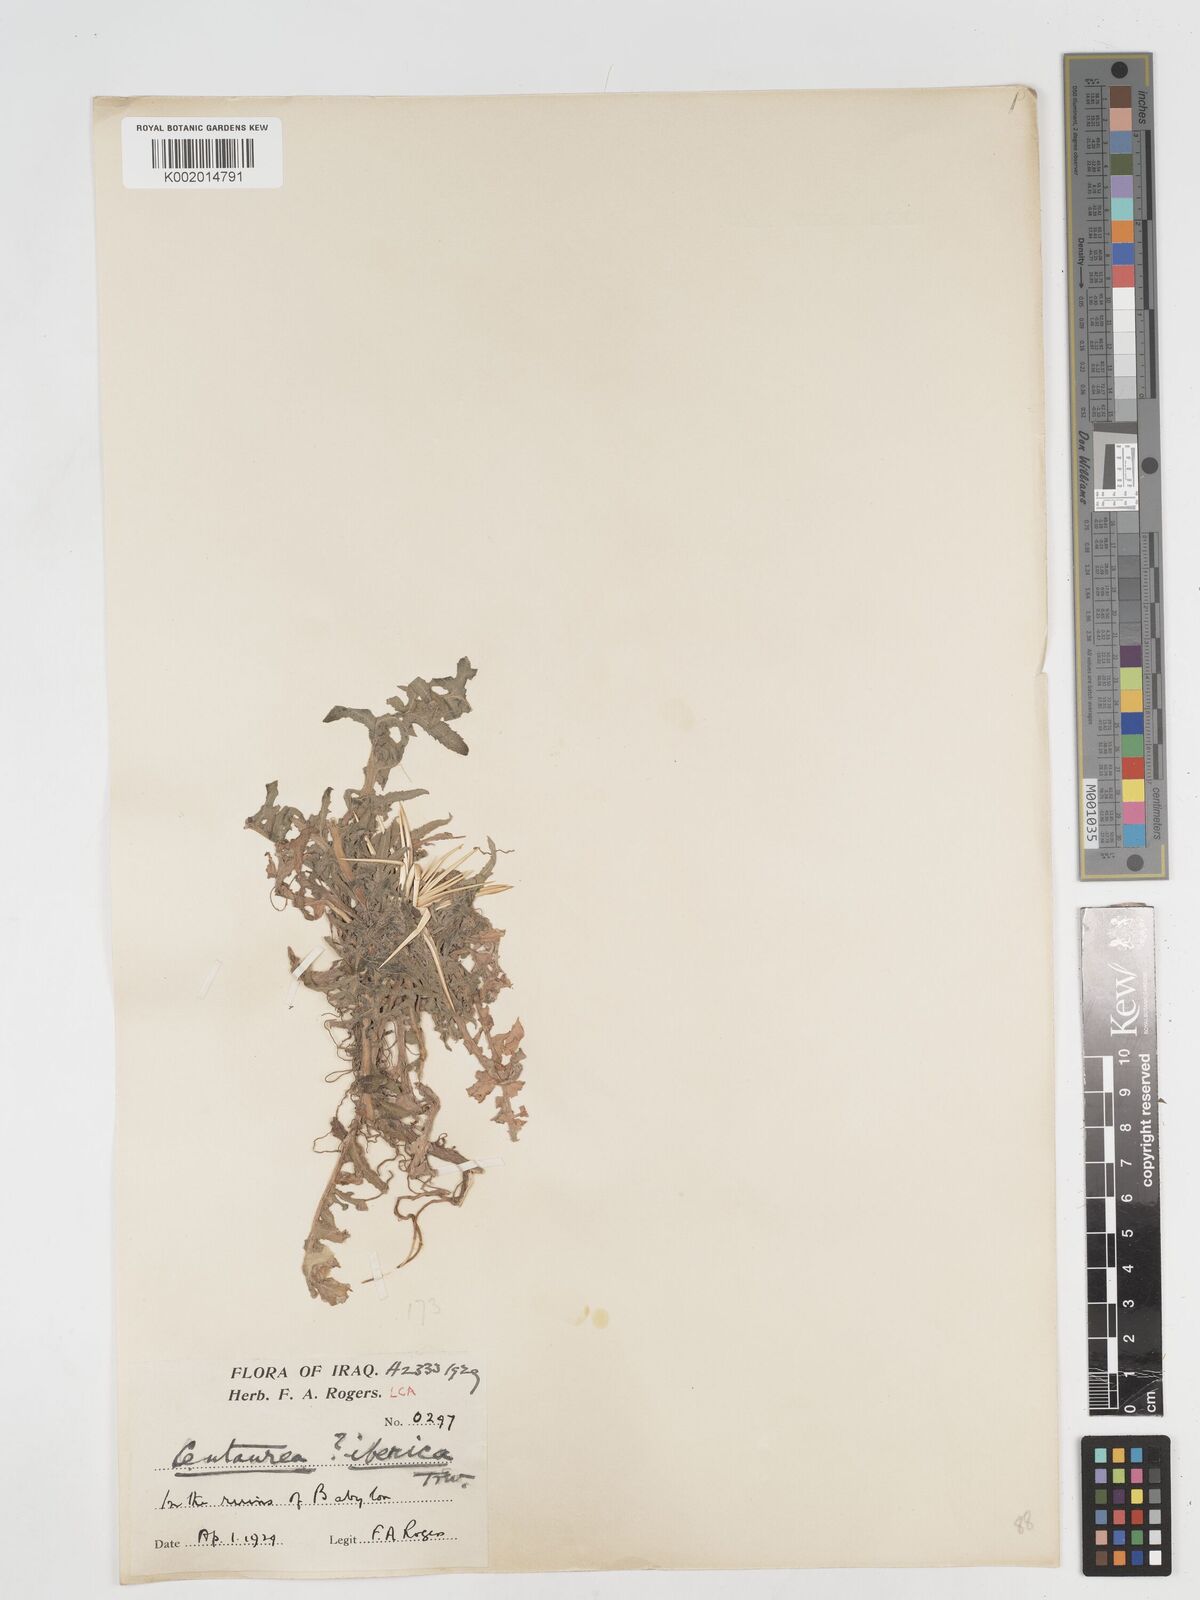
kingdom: Plantae
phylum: Tracheophyta
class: Magnoliopsida
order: Asterales
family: Asteraceae
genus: Centaurea
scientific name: Centaurea iberica
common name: Iberian knapweed
